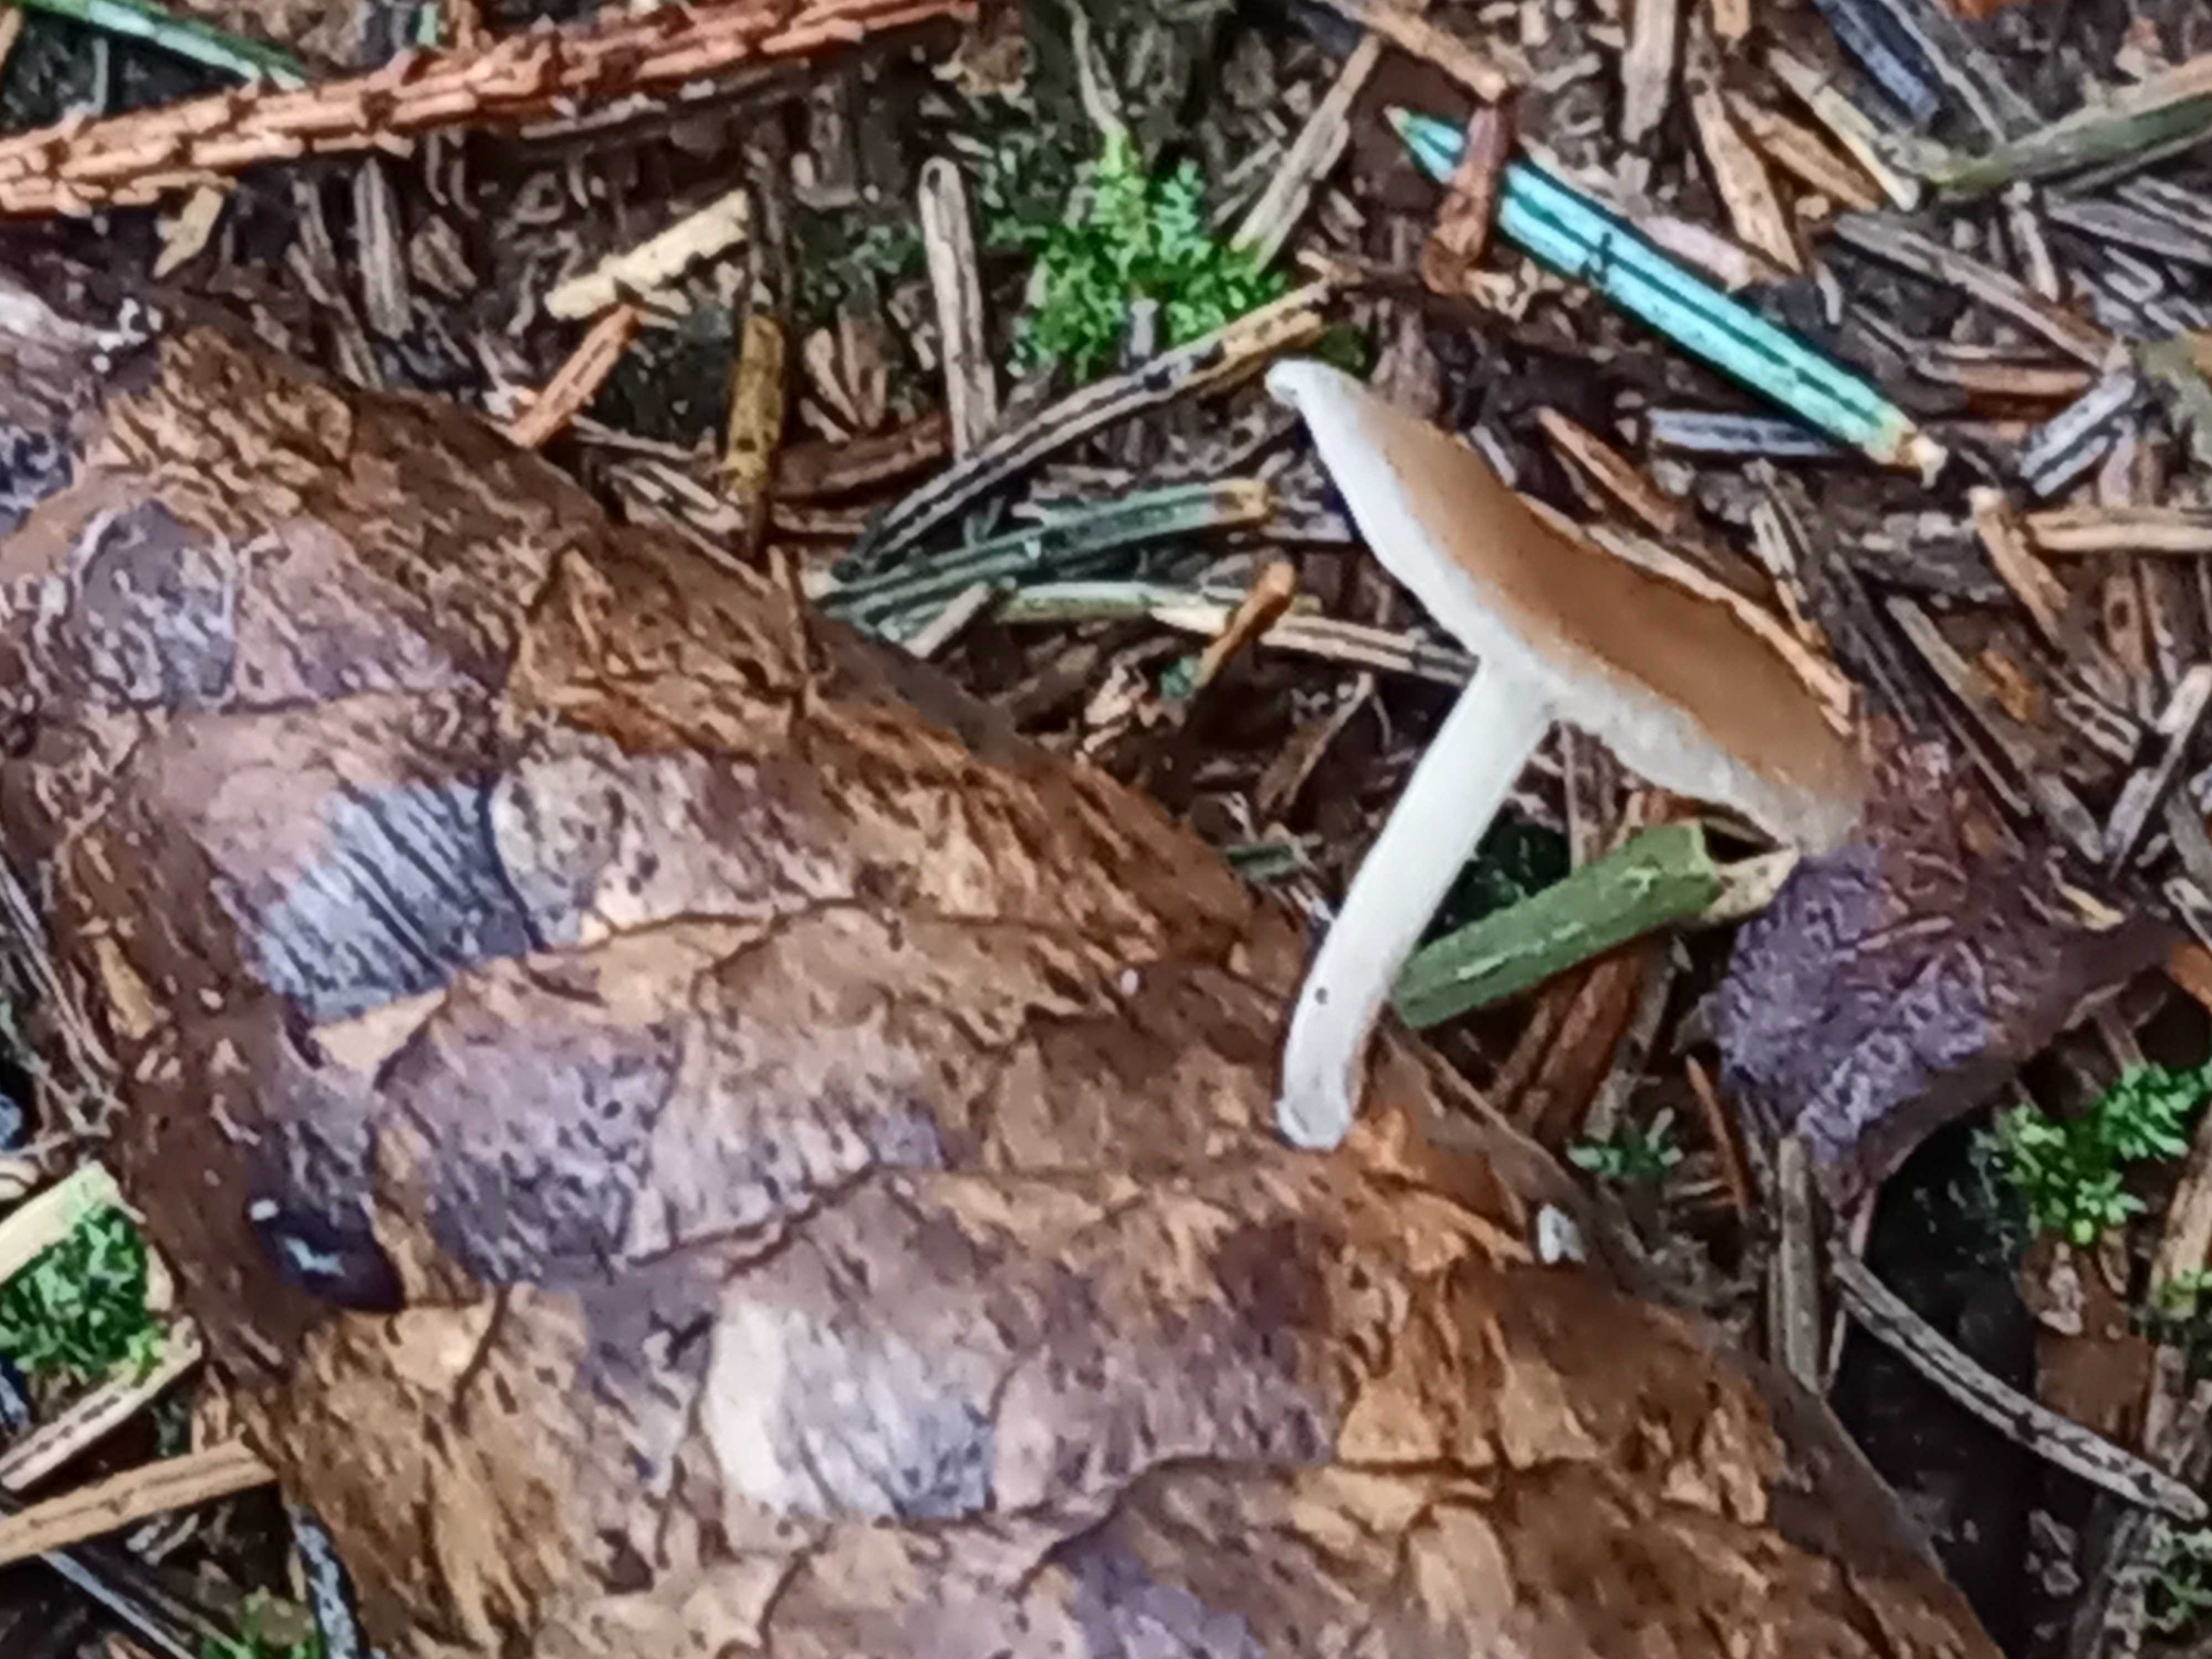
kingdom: Fungi
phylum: Basidiomycota
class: Agaricomycetes
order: Agaricales
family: Marasmiaceae
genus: Baeospora
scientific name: Baeospora myosura
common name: koglebruskhat
